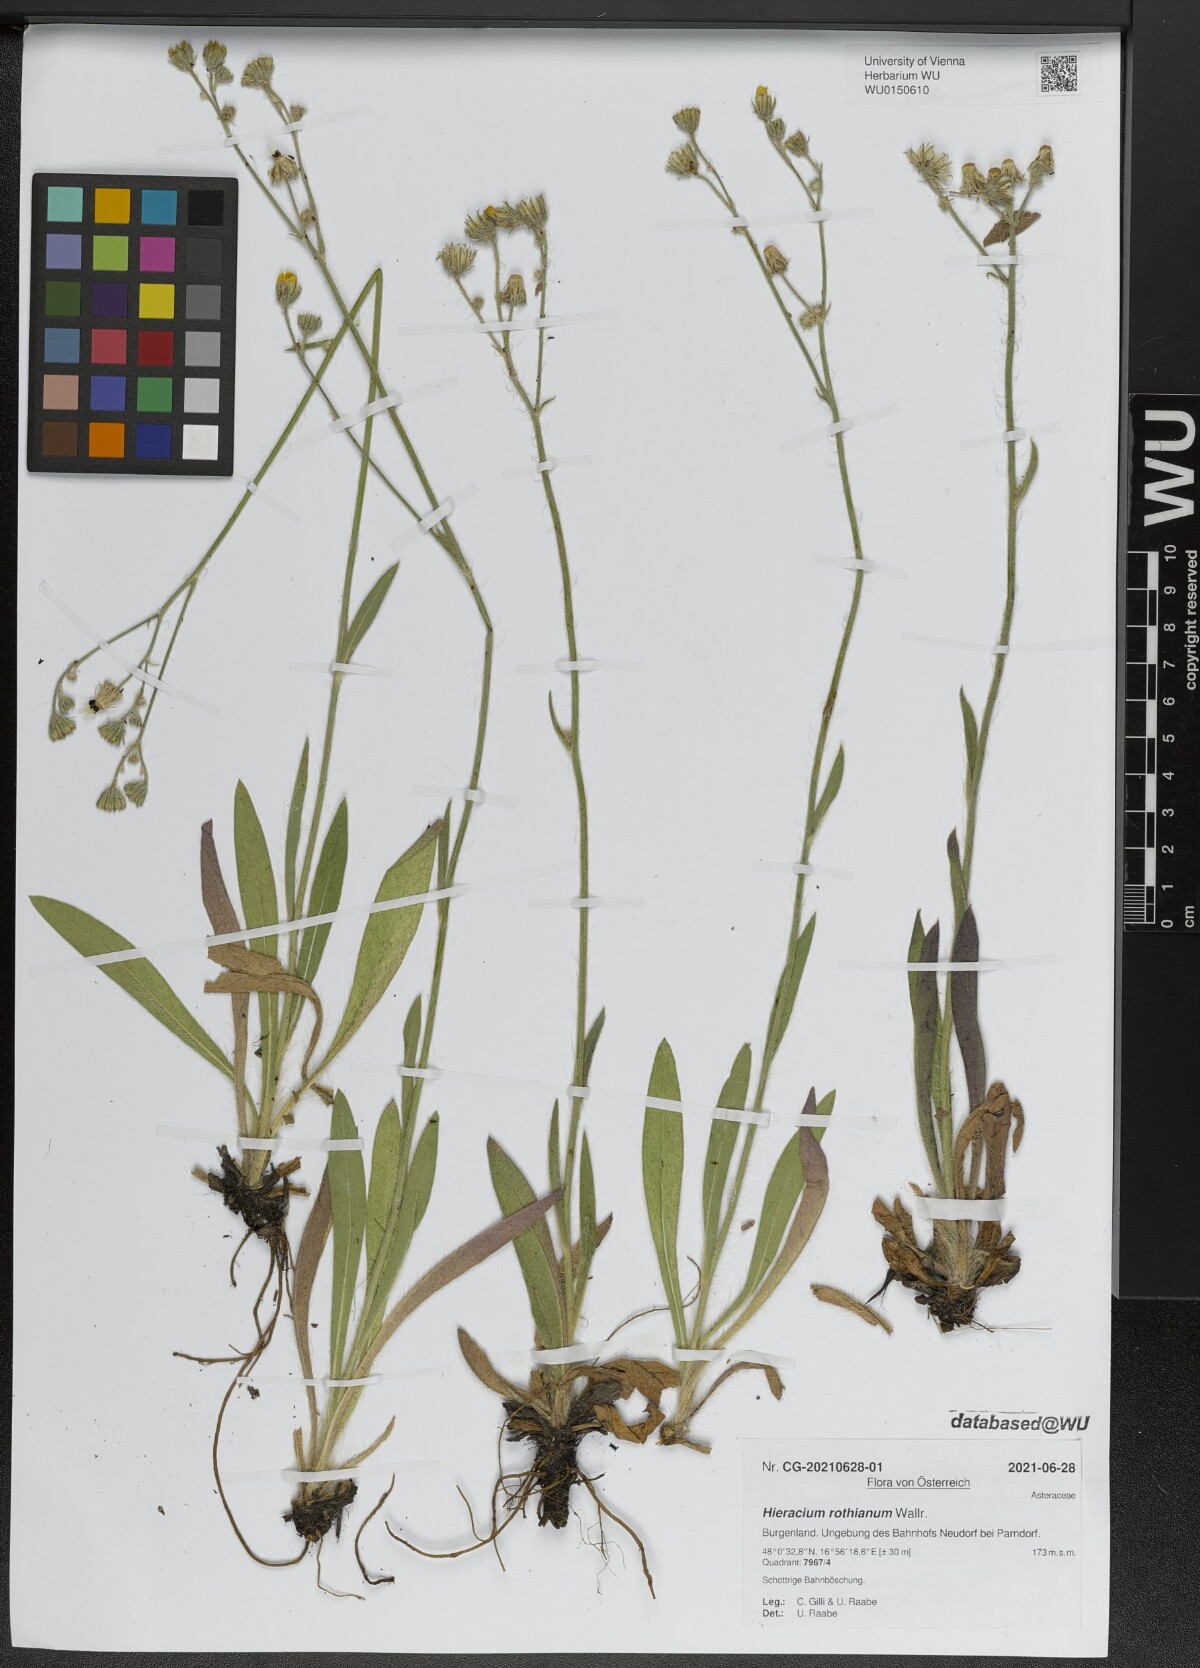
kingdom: Plantae
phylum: Tracheophyta
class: Magnoliopsida
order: Asterales
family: Asteraceae
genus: Pilosella
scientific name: Pilosella rothiana
